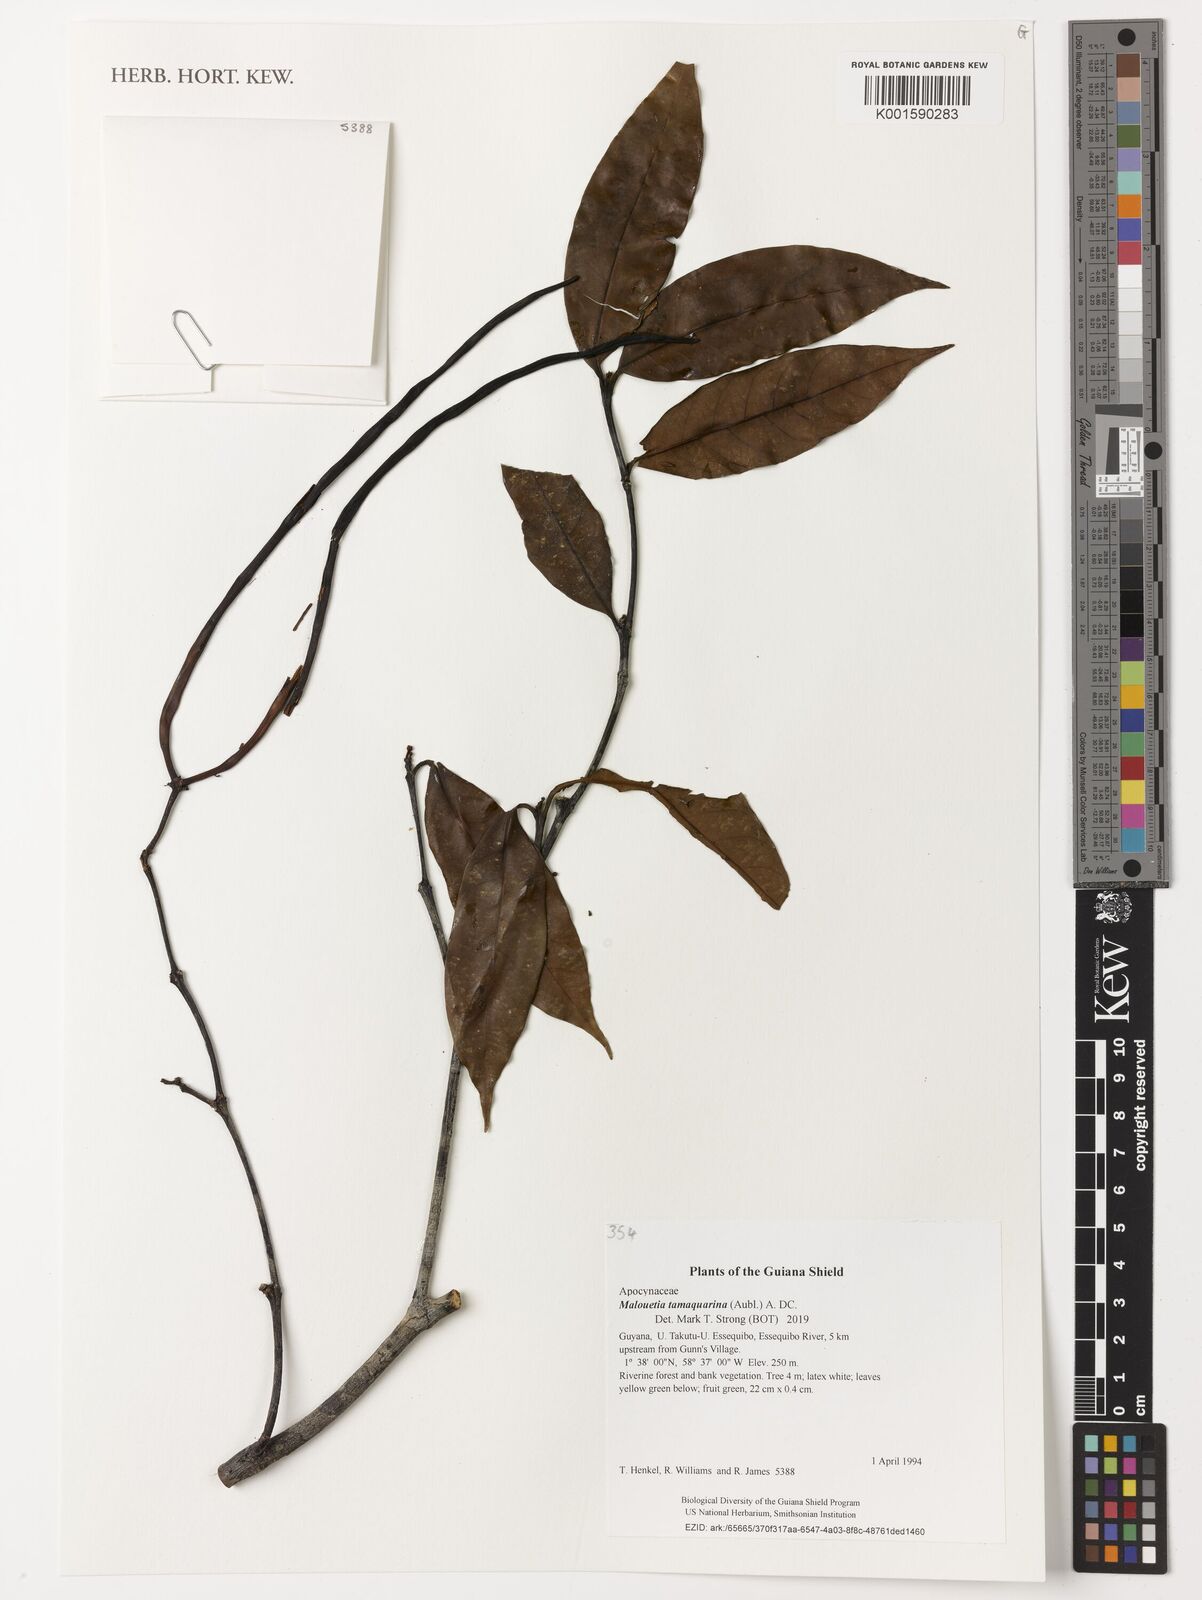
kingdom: Plantae
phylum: Tracheophyta
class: Magnoliopsida
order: Gentianales
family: Apocynaceae
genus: Malouetia
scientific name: Malouetia tamaquarina
